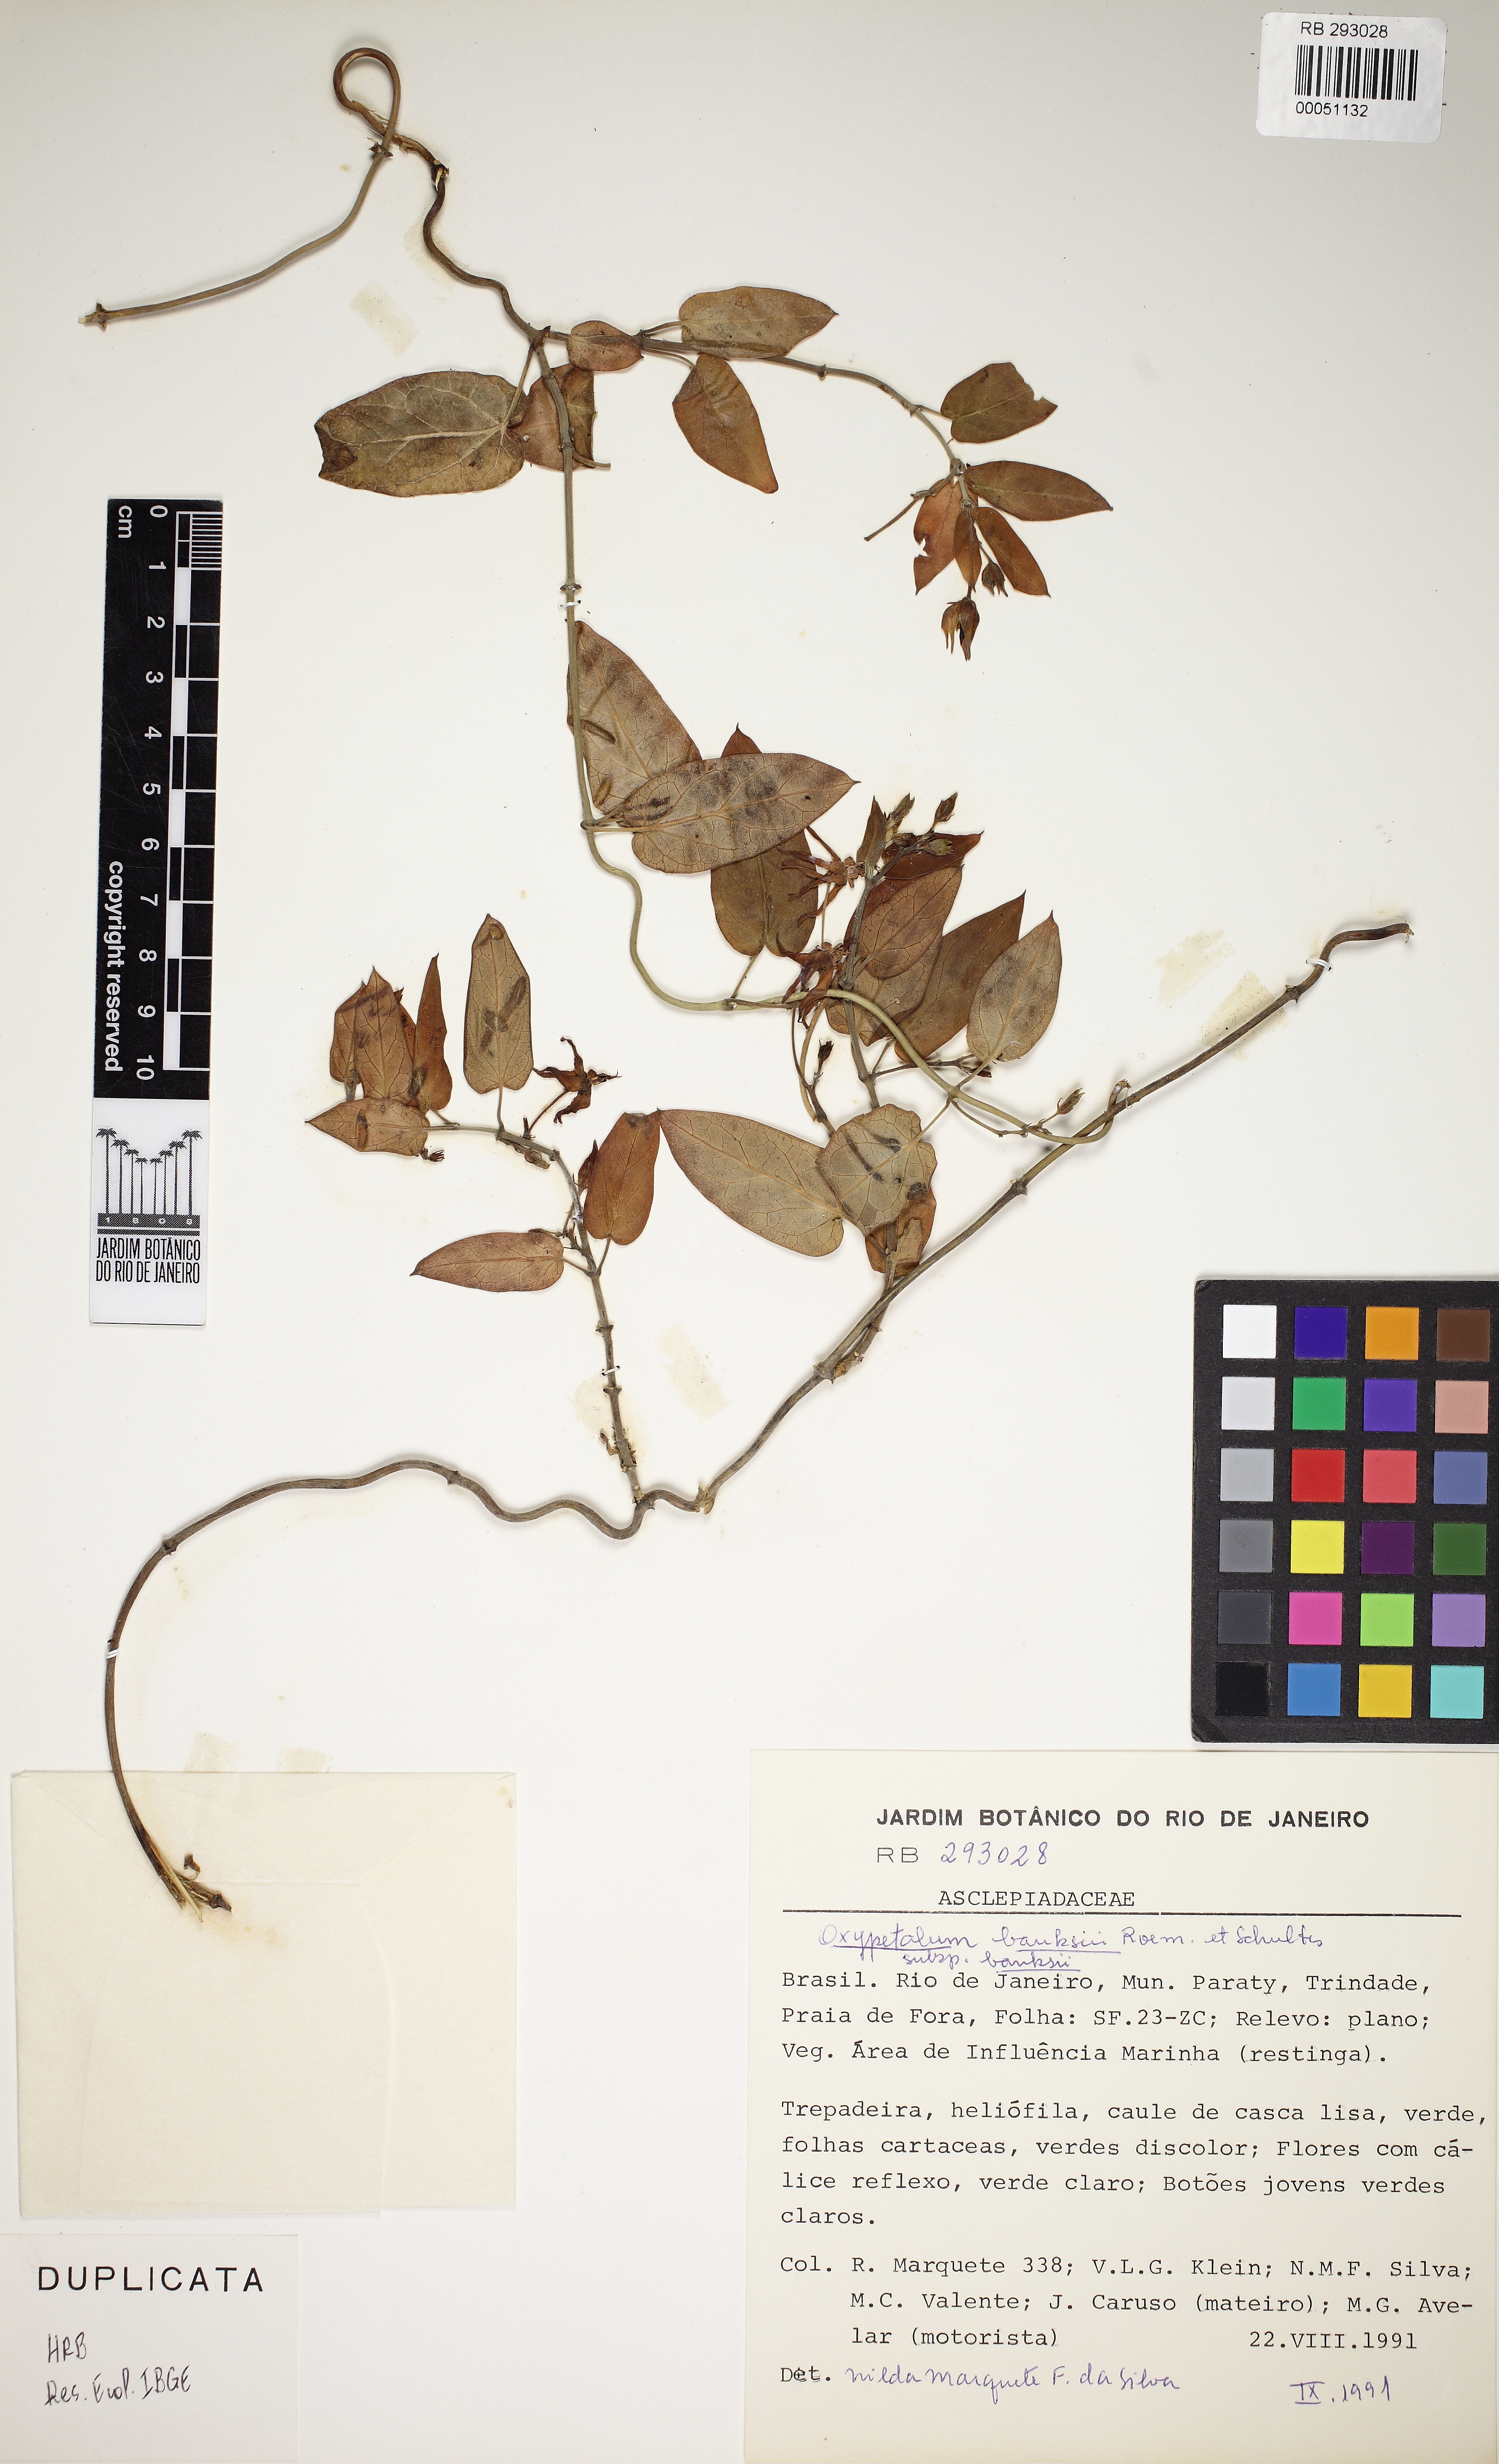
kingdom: Plantae
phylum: Tracheophyta
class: Magnoliopsida
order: Gentianales
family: Apocynaceae
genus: Oxypetalum
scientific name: Oxypetalum banksii
